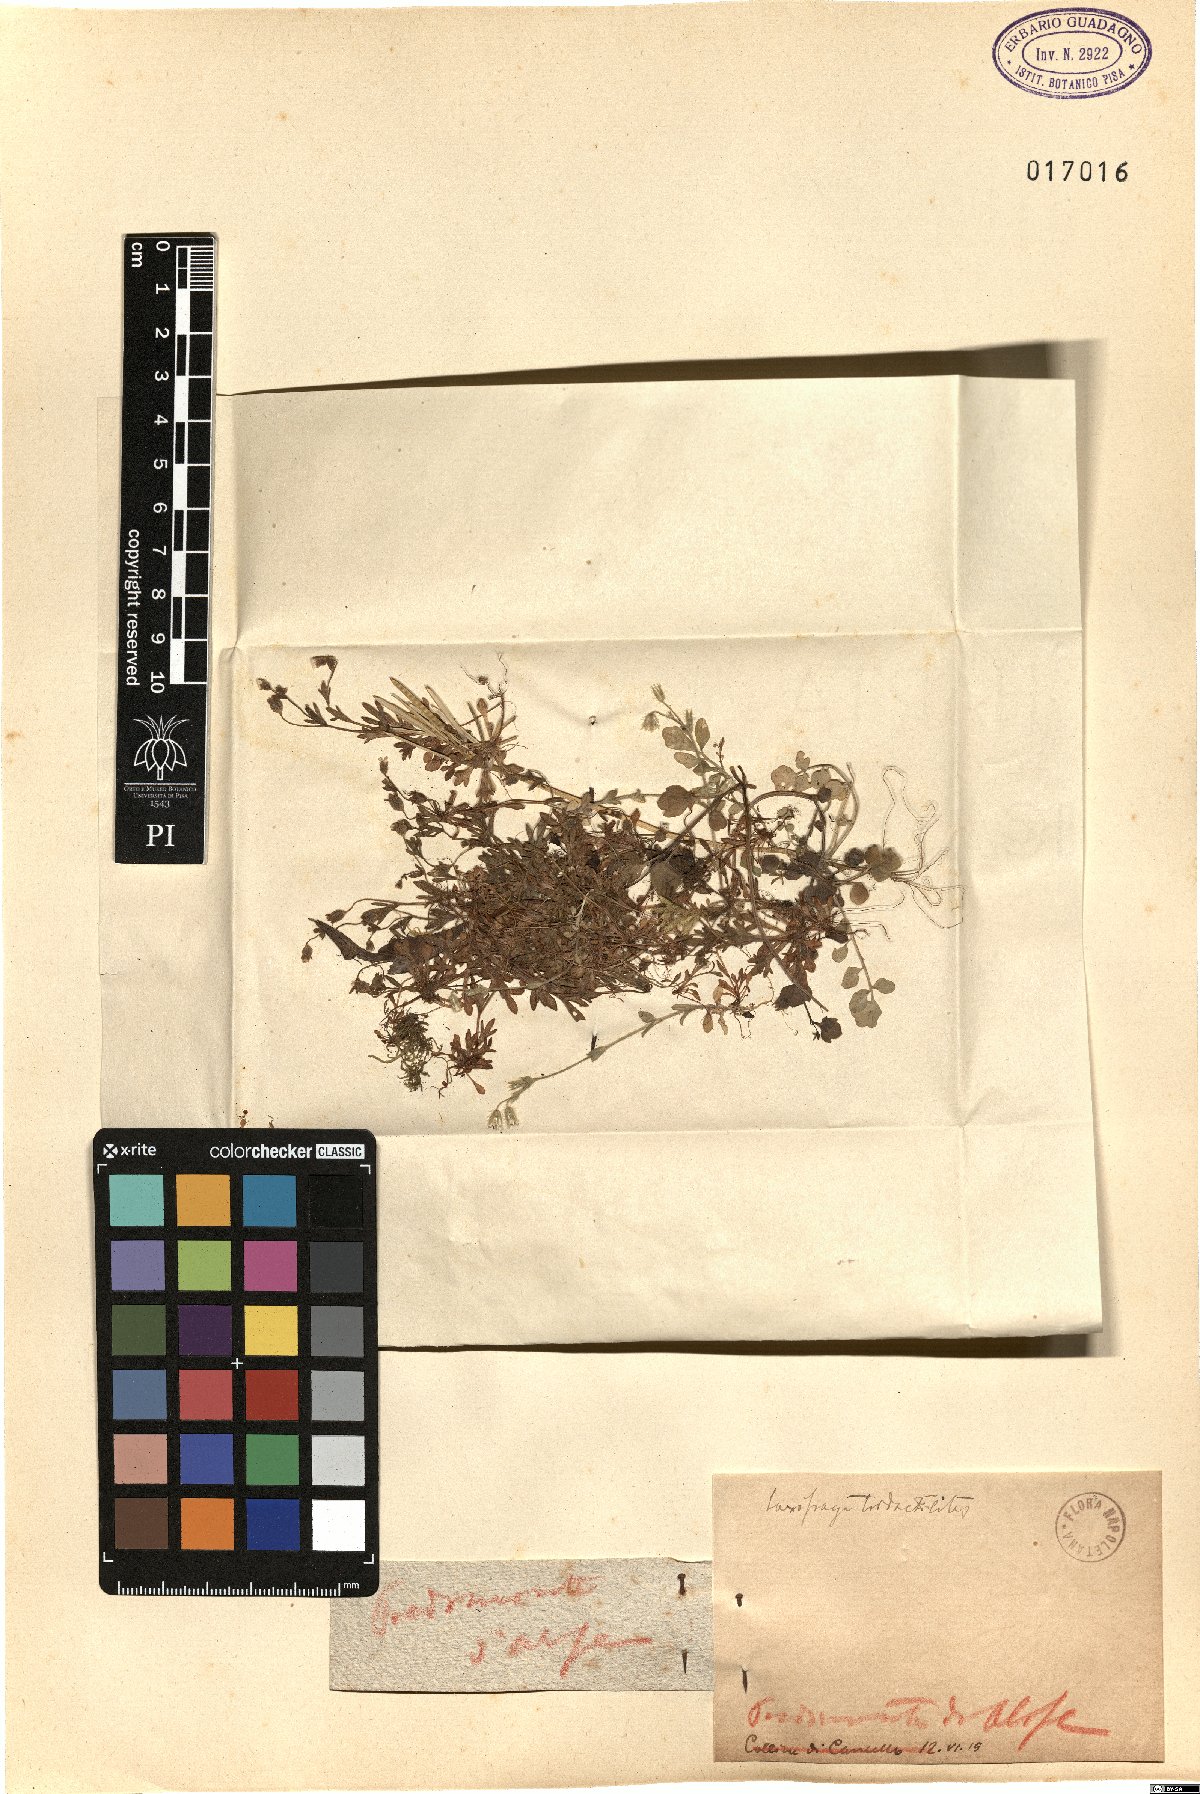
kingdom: Plantae
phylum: Tracheophyta
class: Magnoliopsida
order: Saxifragales
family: Saxifragaceae
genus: Saxifraga
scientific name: Saxifraga tridactylites
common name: Rue-leaved saxifrage
